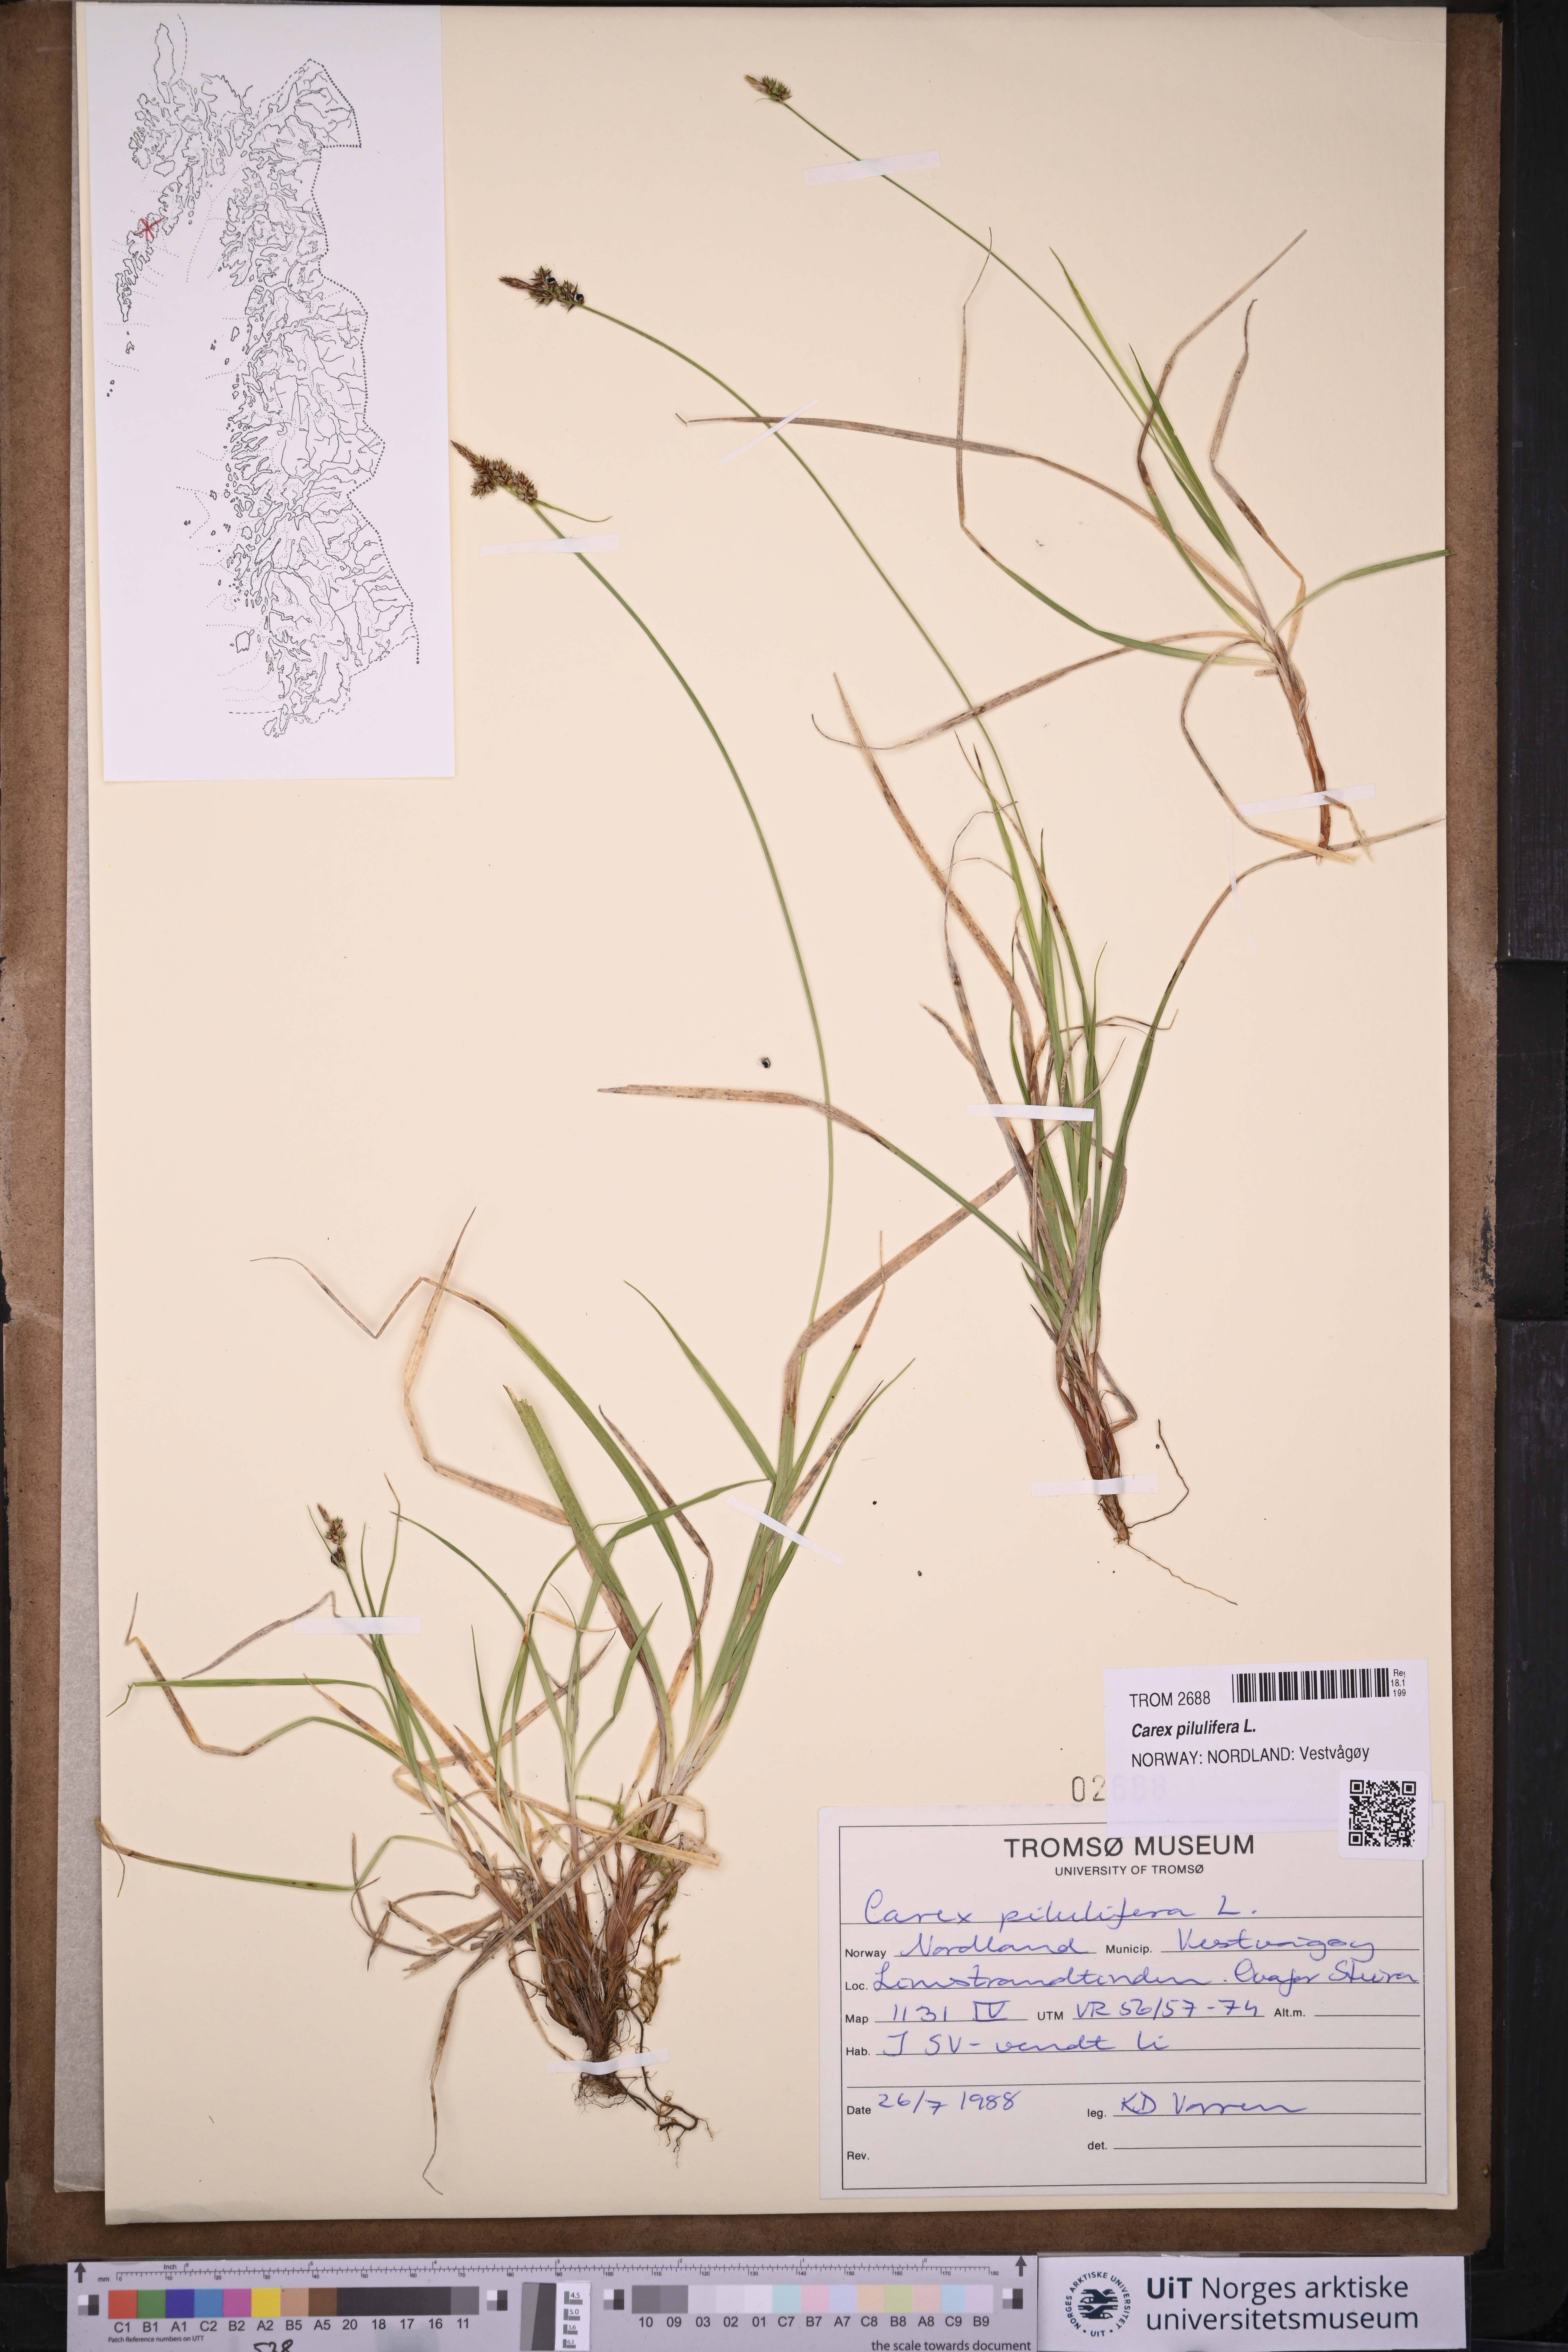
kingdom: Plantae
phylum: Tracheophyta
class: Liliopsida
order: Poales
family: Cyperaceae
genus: Carex
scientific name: Carex pilulifera
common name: Pill sedge
